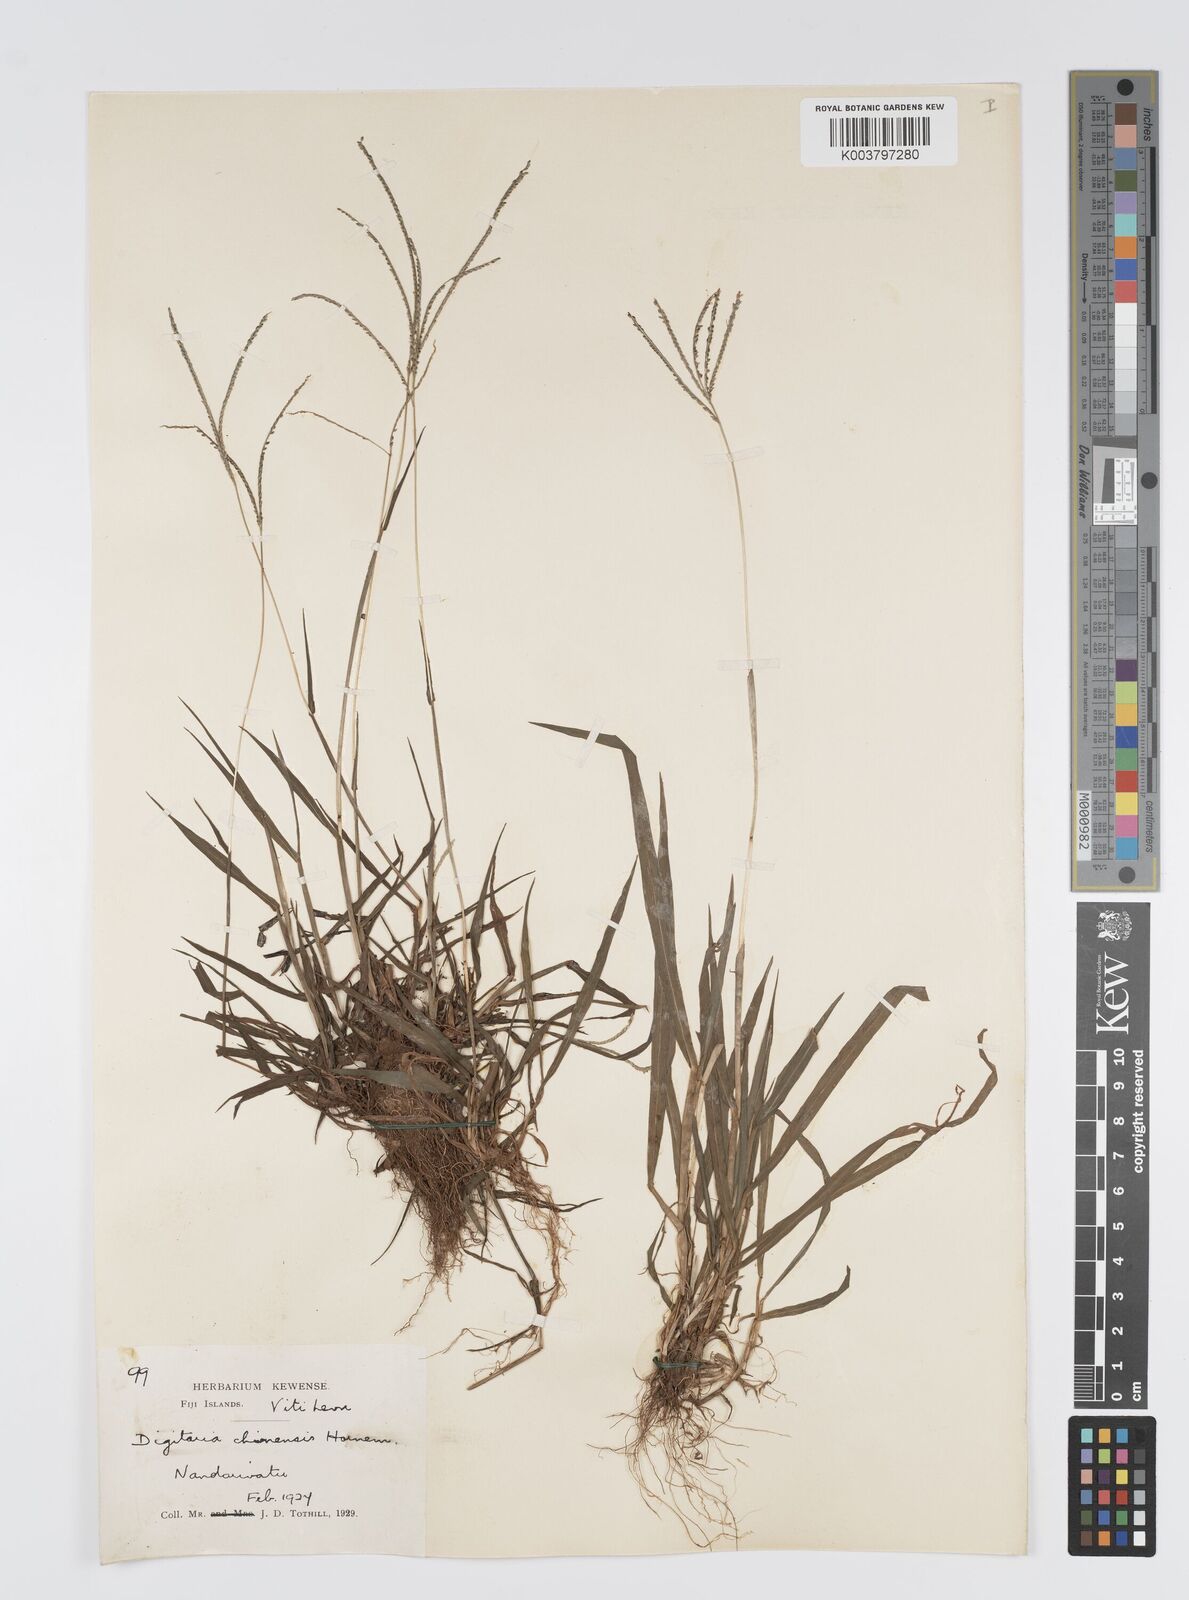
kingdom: Plantae
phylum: Tracheophyta
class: Liliopsida
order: Poales
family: Poaceae
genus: Digitaria
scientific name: Digitaria fuscescens
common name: Yellow crabgrass
